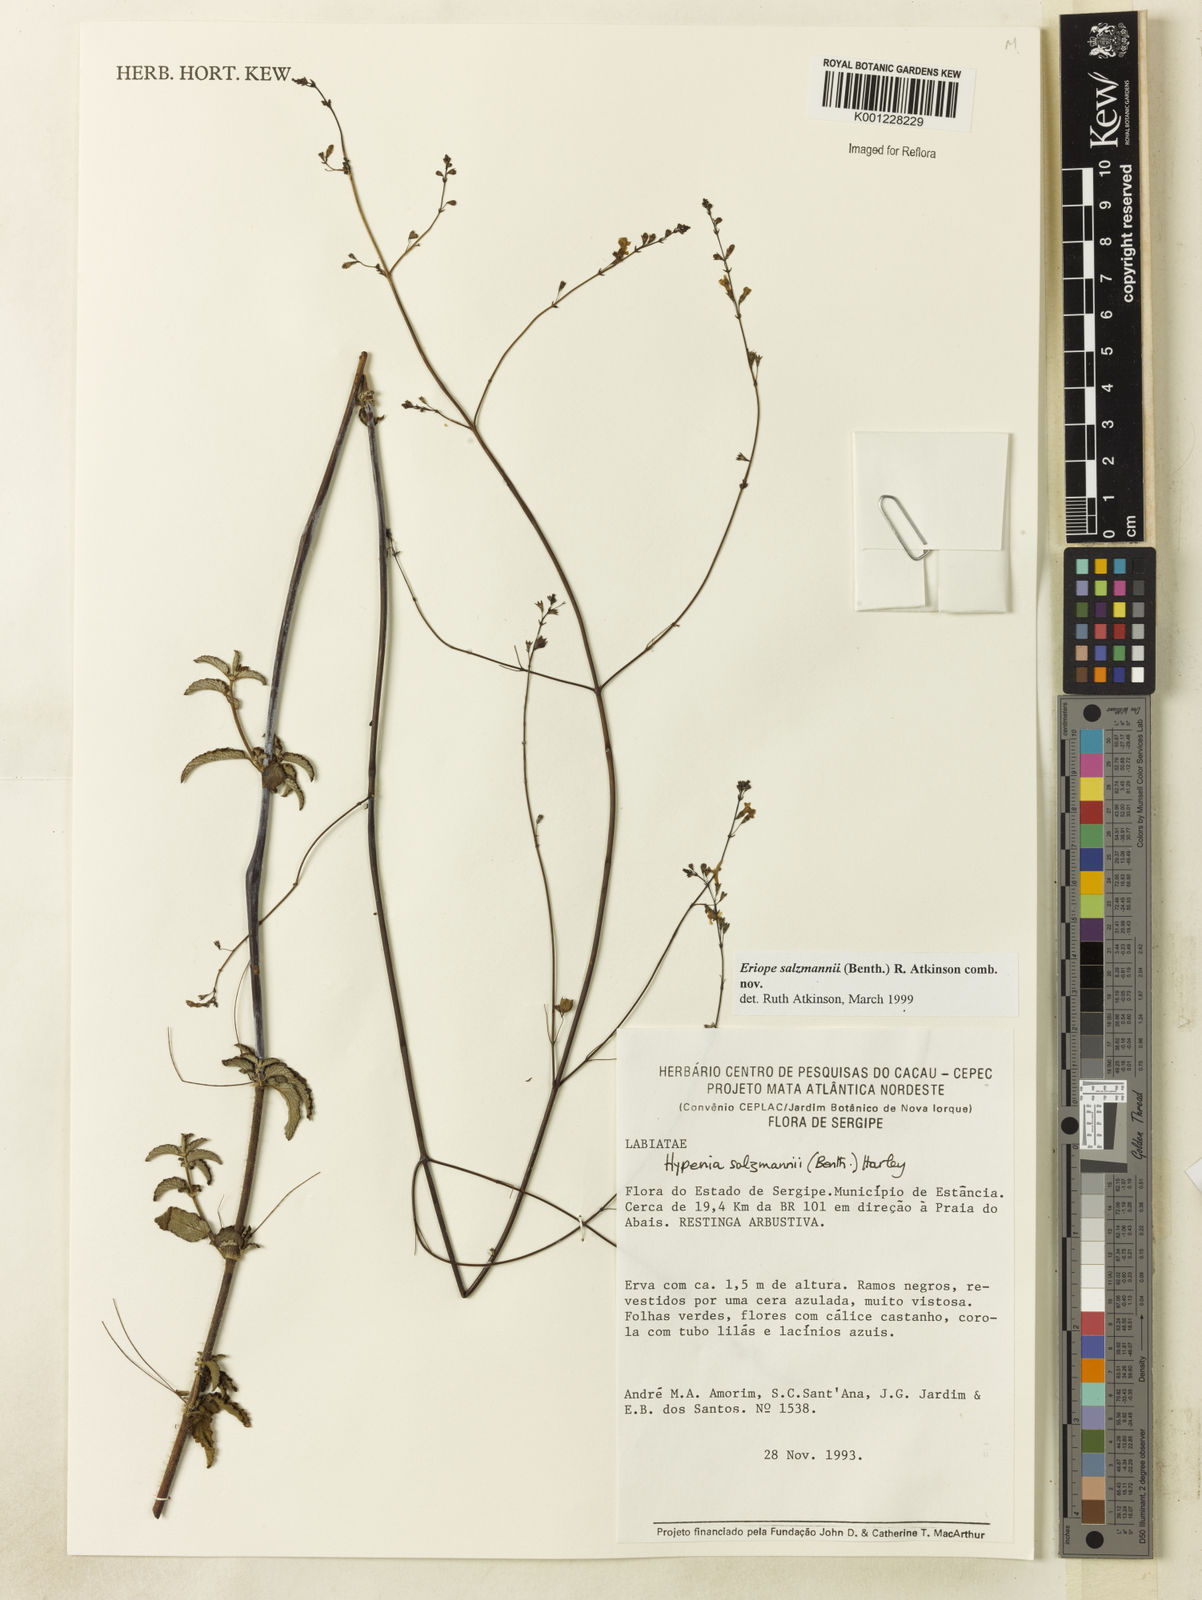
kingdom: Plantae
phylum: Tracheophyta
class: Magnoliopsida
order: Lamiales
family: Lamiaceae
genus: Hypenia
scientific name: Hypenia salzmannii
